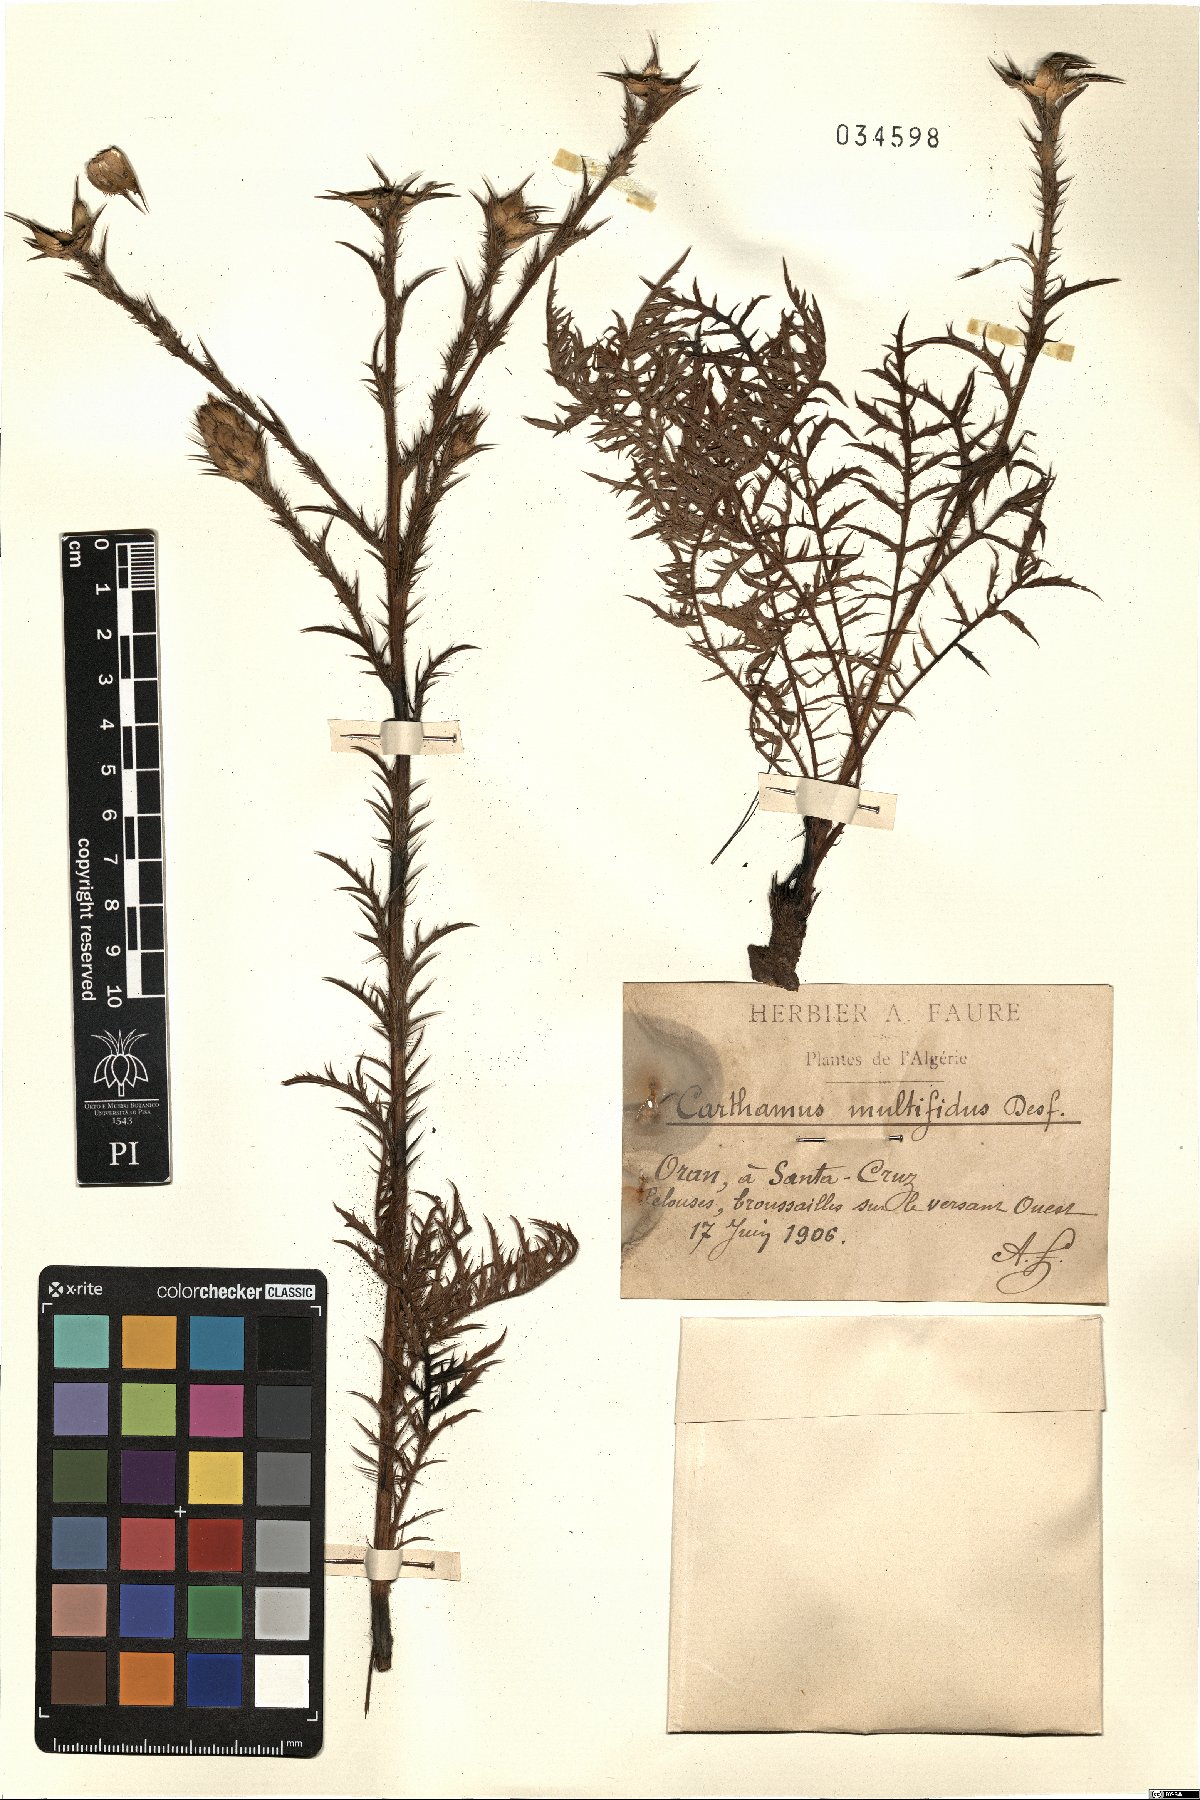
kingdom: Plantae
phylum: Tracheophyta
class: Magnoliopsida
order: Asterales
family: Asteraceae
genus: Carthamus
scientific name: Carthamus multifidus
